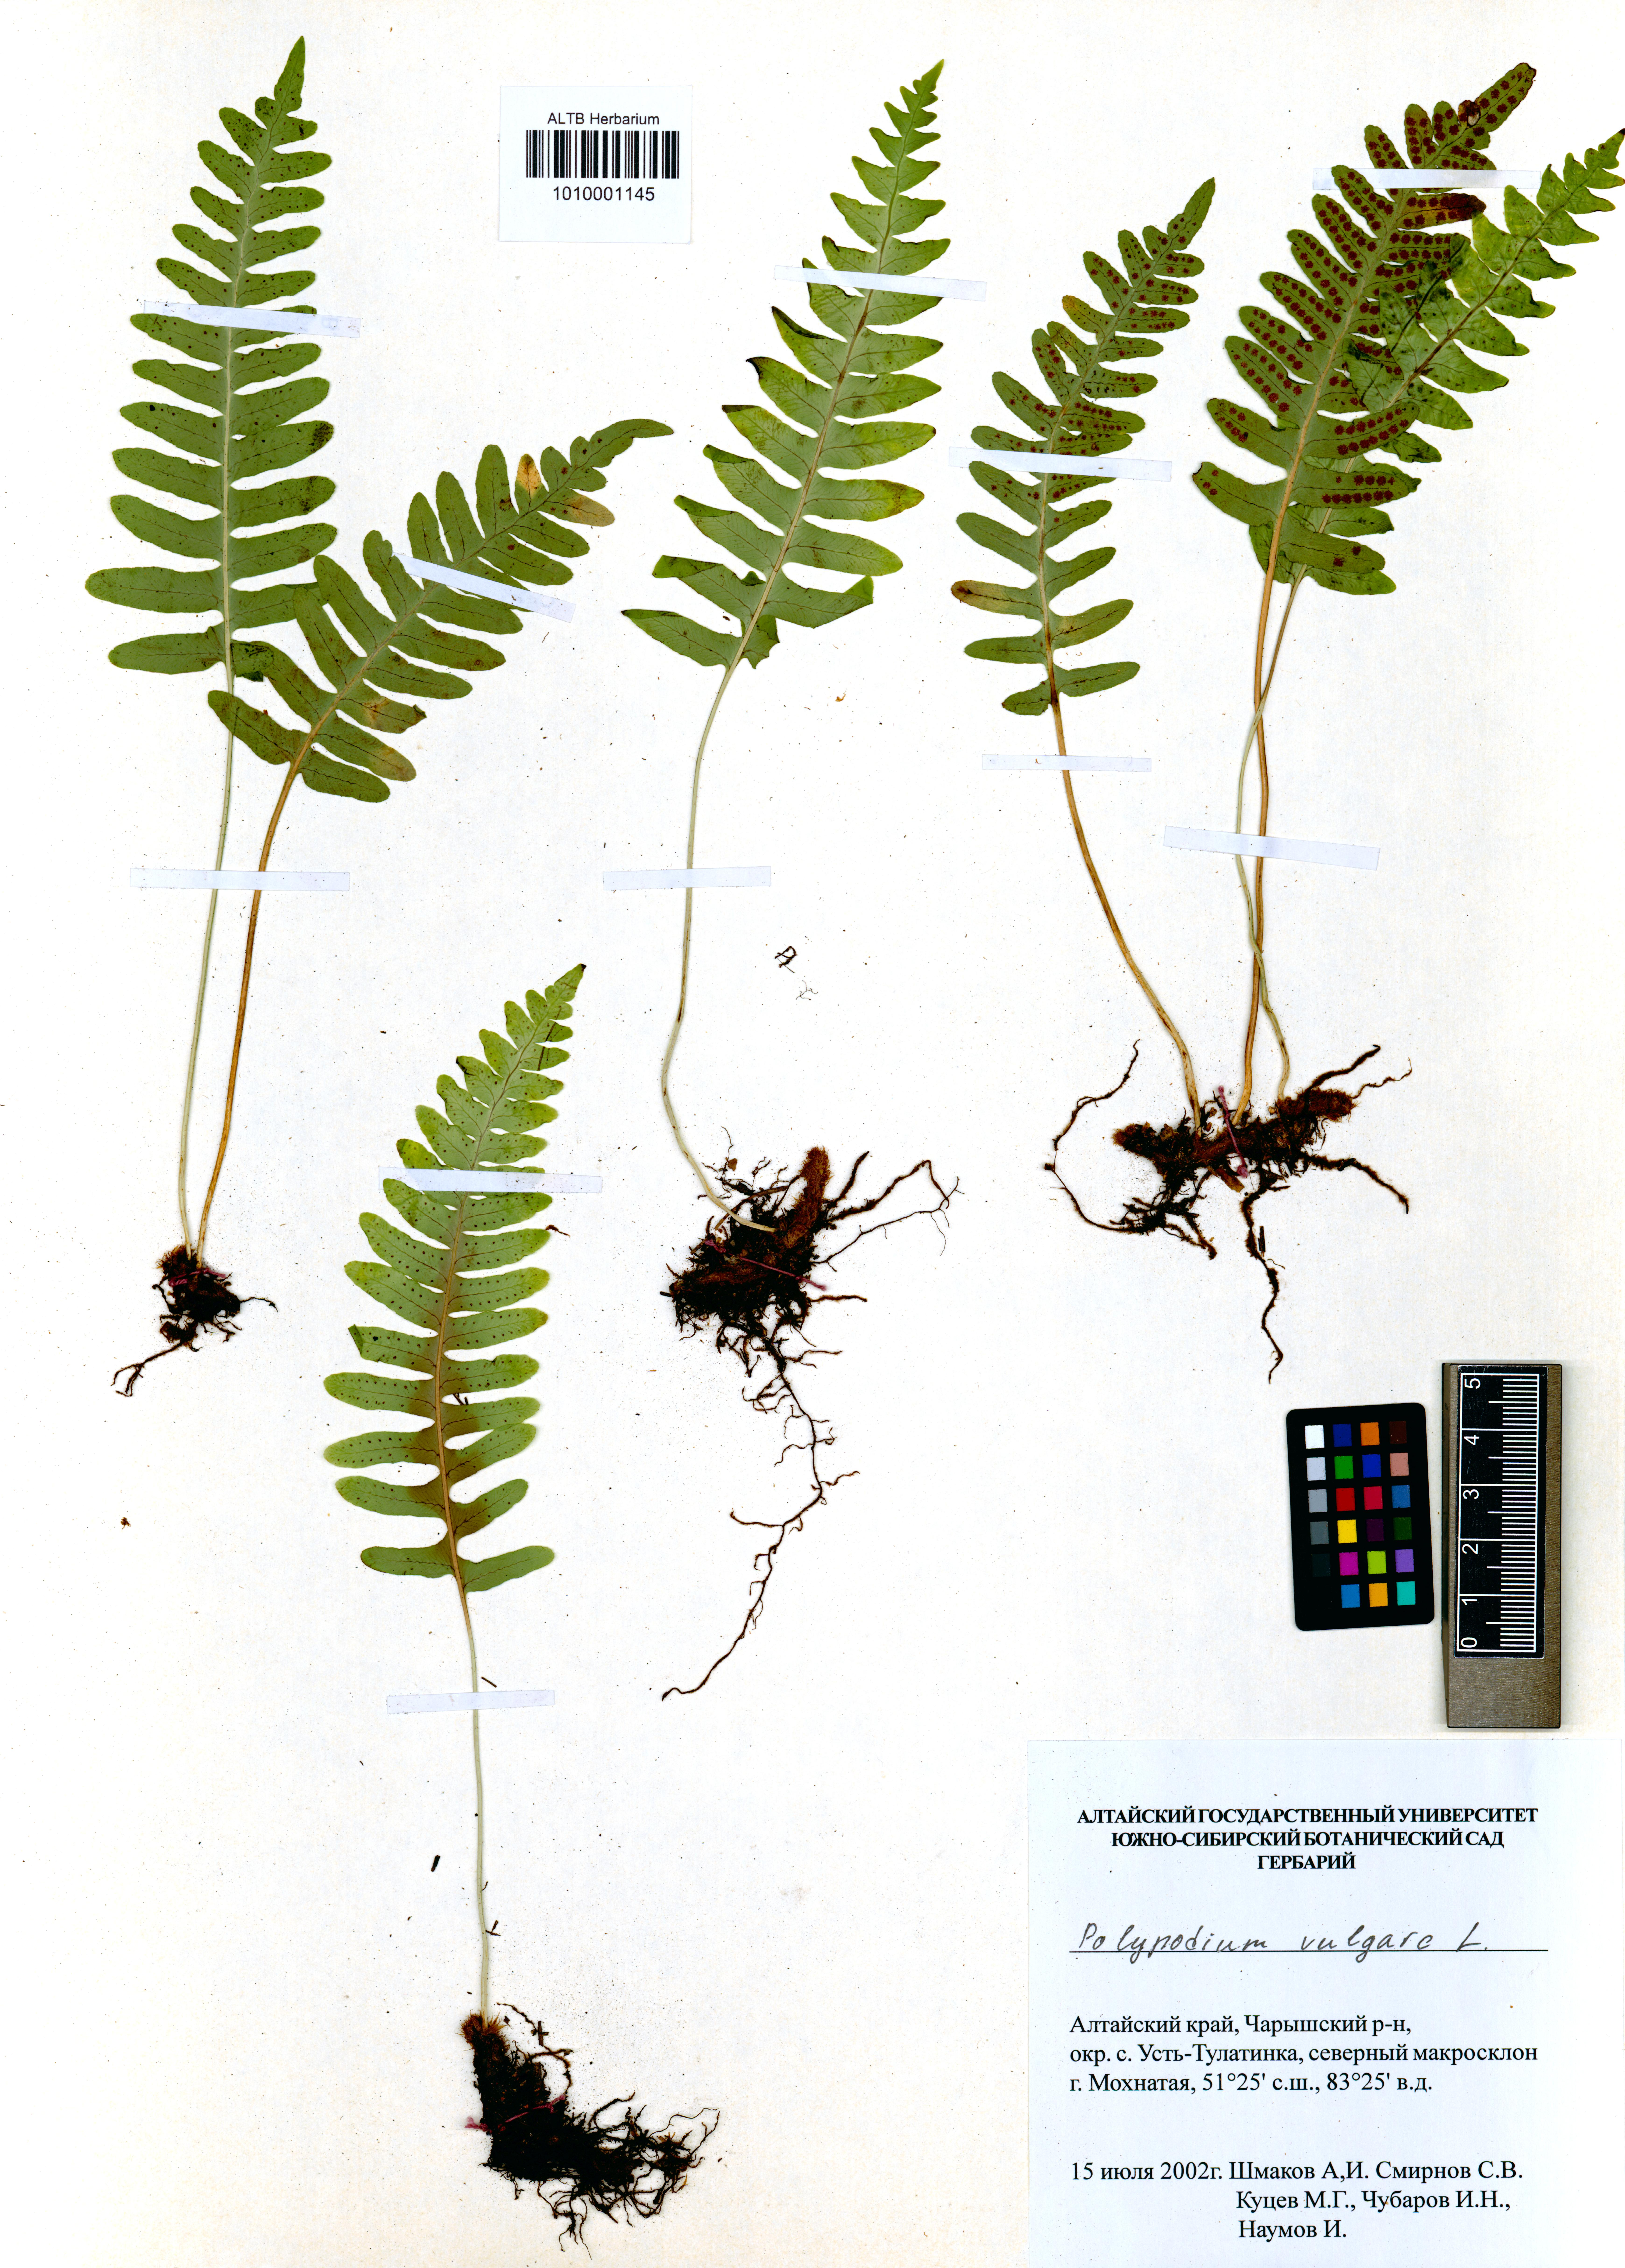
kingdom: Plantae
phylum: Tracheophyta
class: Polypodiopsida
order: Polypodiales
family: Polypodiaceae
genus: Polypodium
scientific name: Polypodium vulgare
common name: Common polypody
